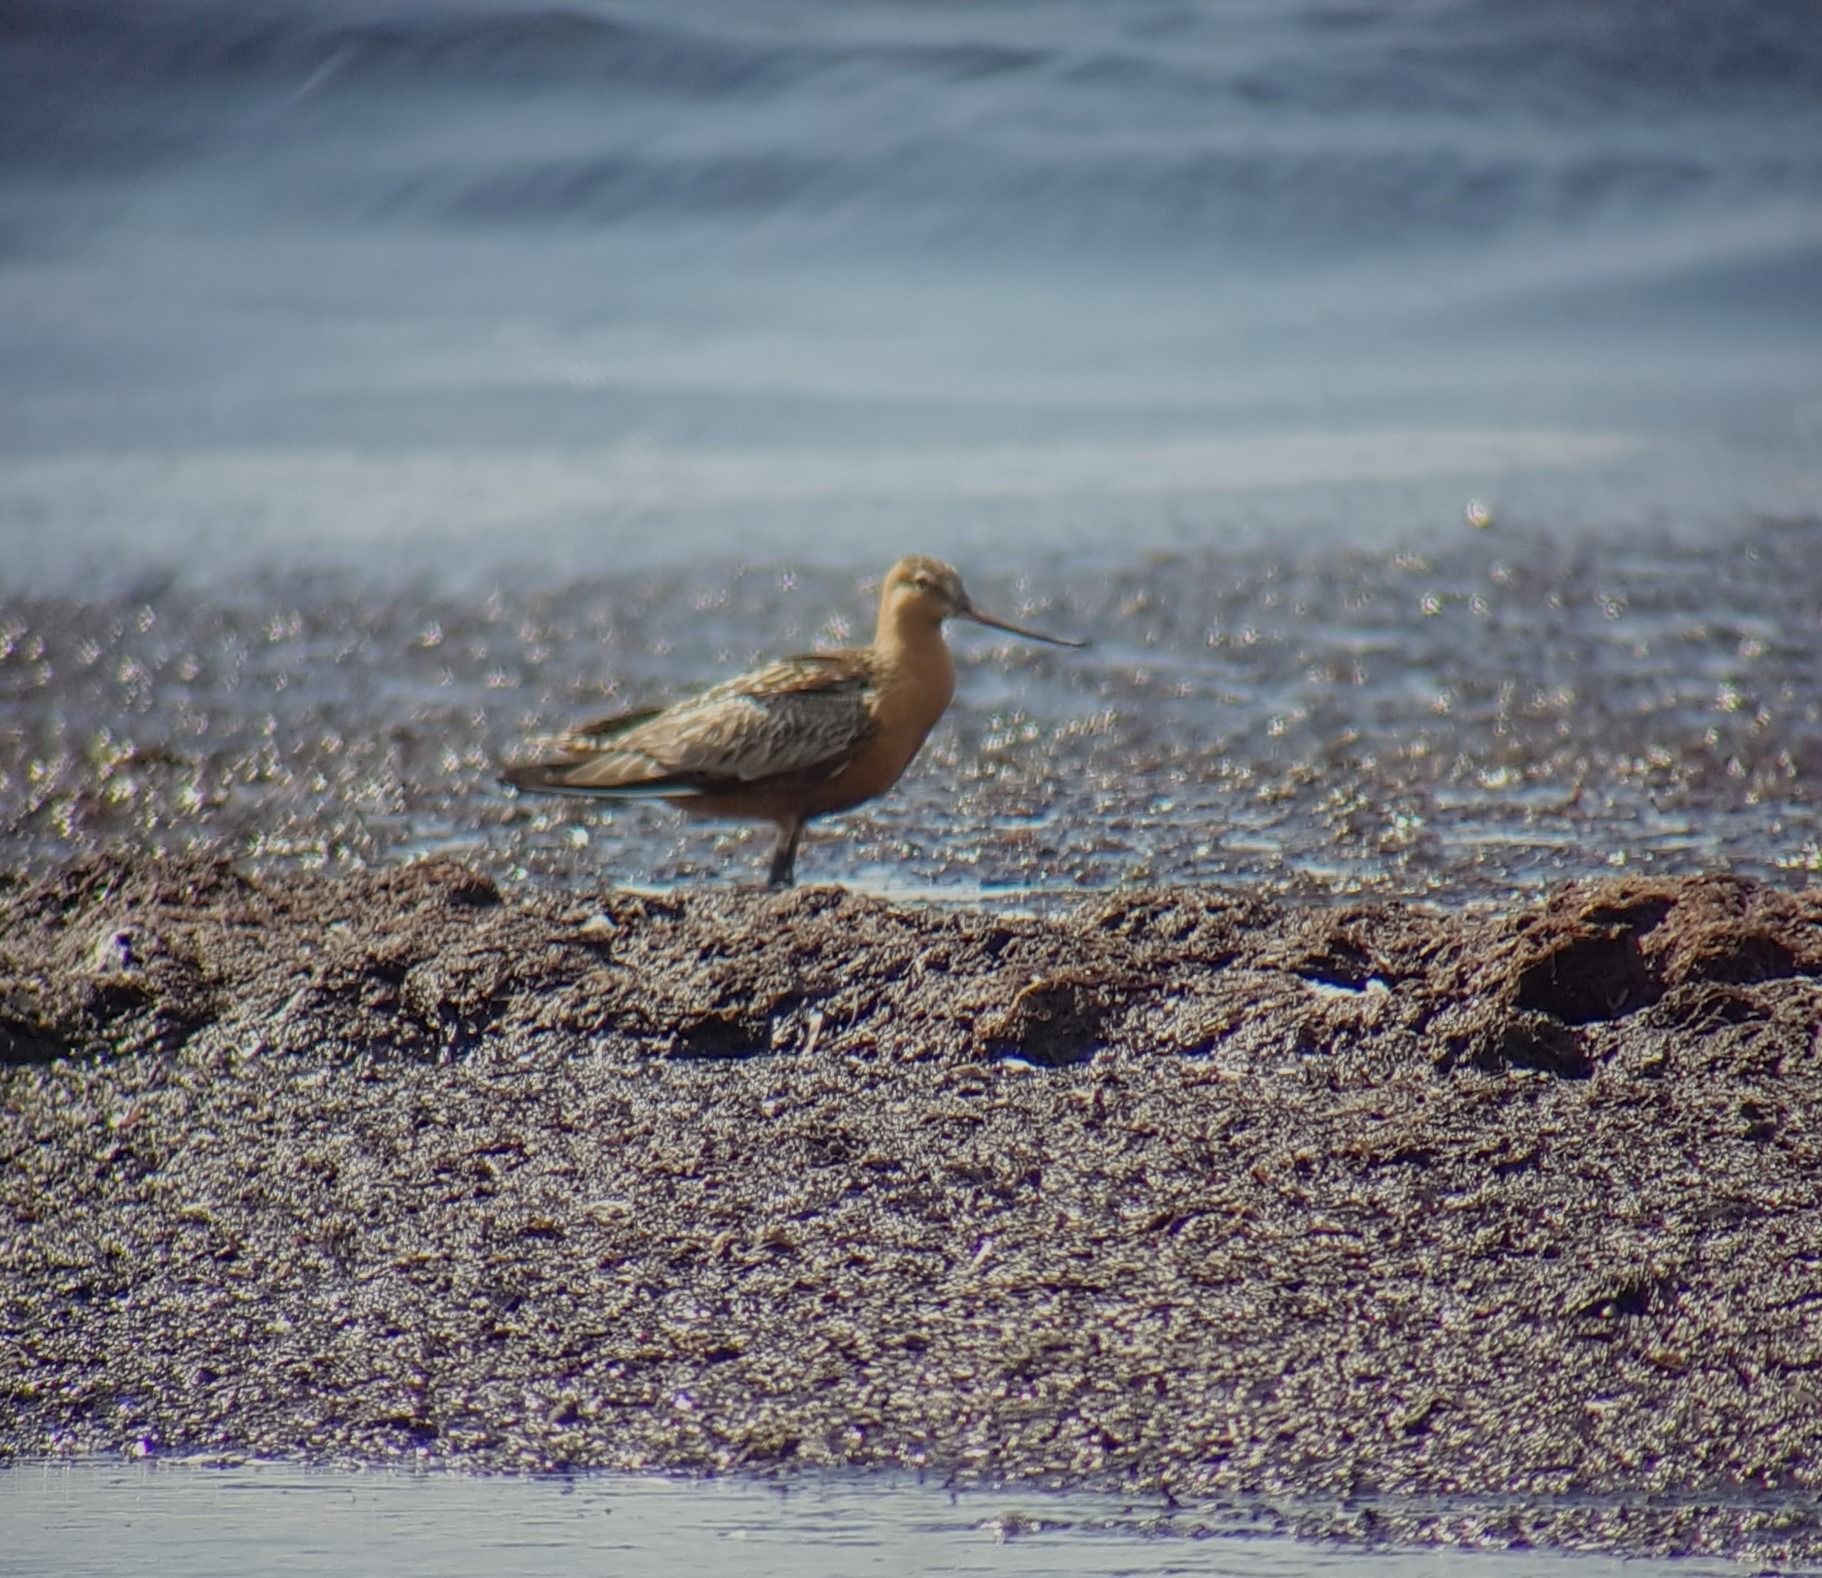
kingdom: Animalia
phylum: Chordata
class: Aves
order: Charadriiformes
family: Scolopacidae
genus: Limosa
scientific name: Limosa lapponica
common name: Lille kobbersneppe
